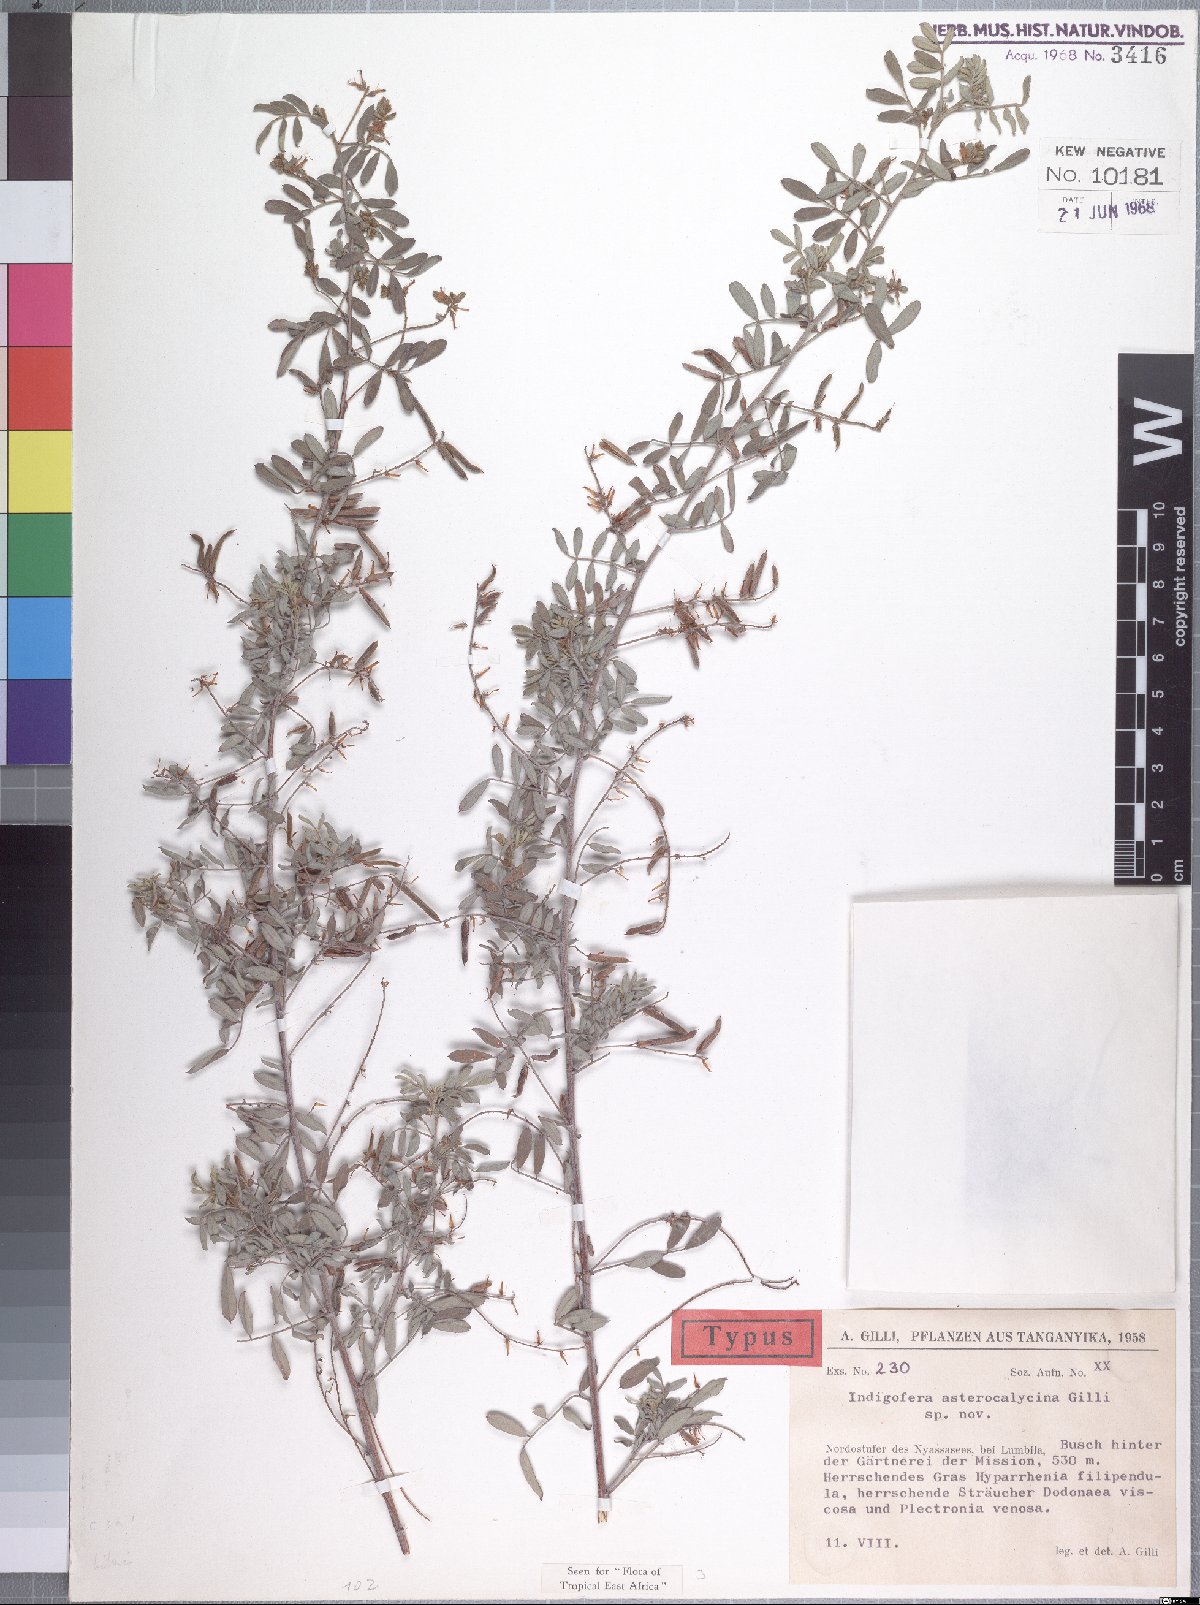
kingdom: Plantae
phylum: Tracheophyta
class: Magnoliopsida
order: Fabales
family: Fabaceae
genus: Indigofera
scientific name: Indigofera asterocalycina
